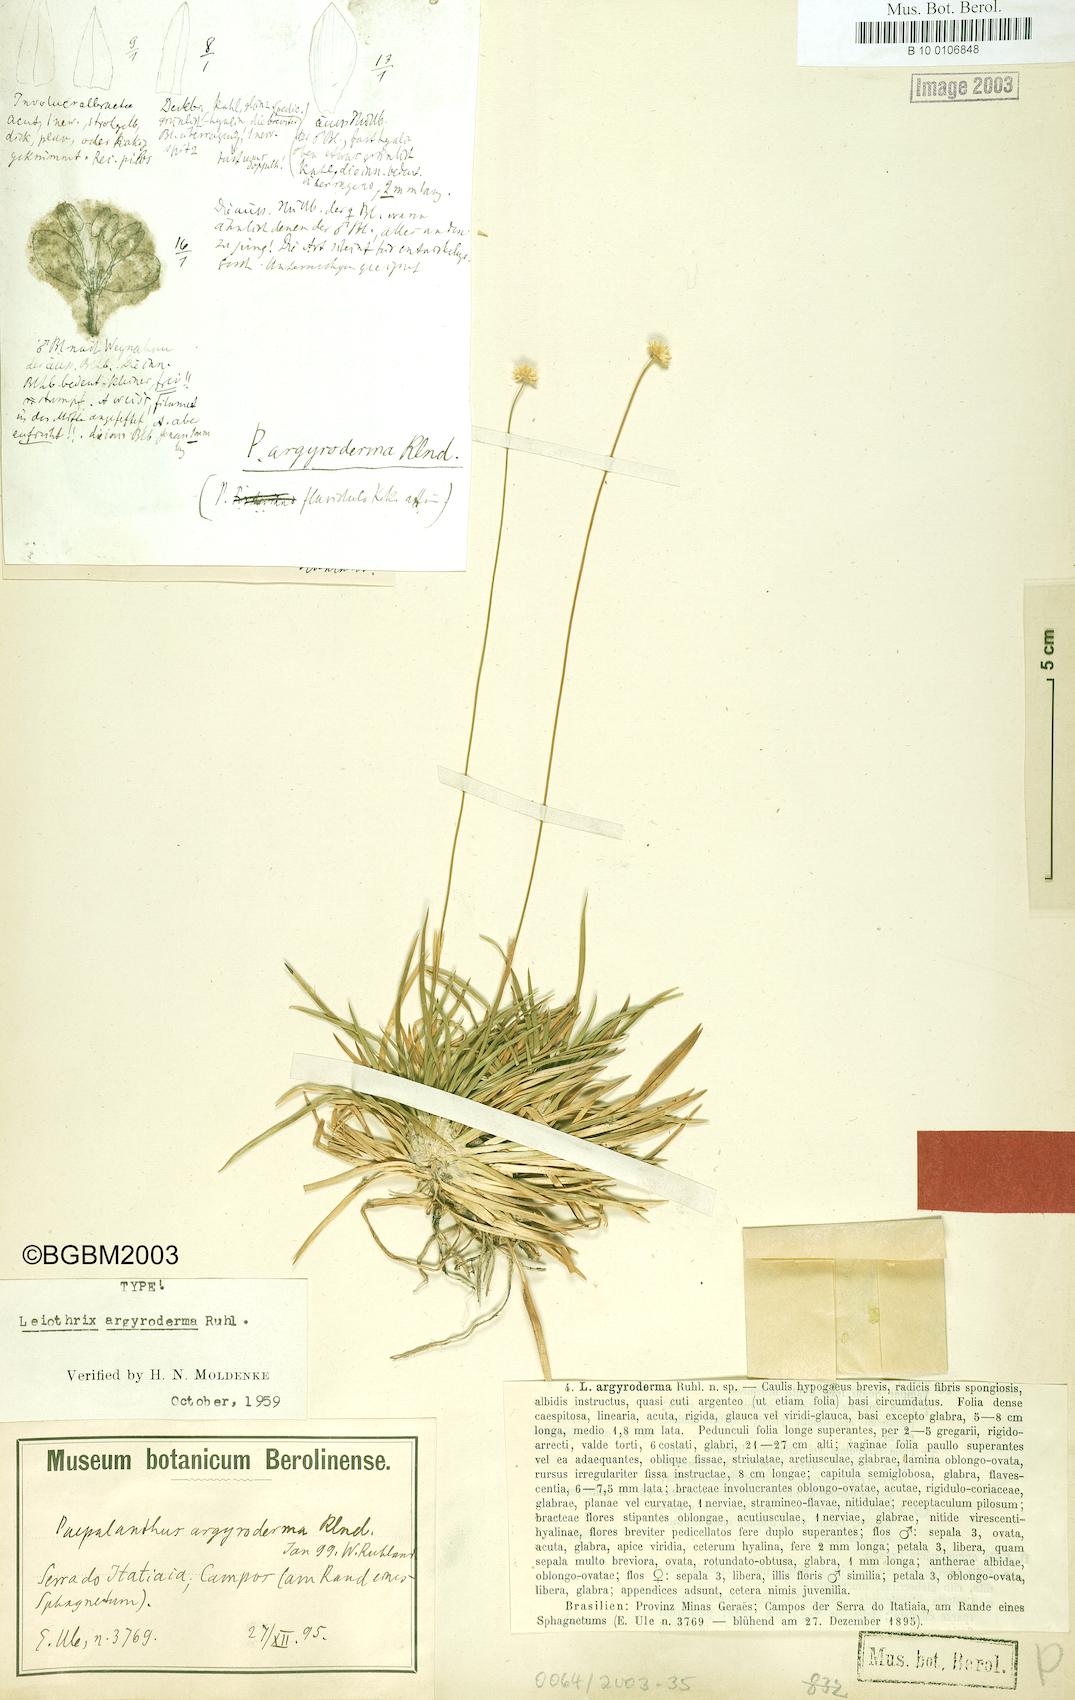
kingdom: Plantae
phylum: Tracheophyta
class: Liliopsida
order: Poales
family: Eriocaulaceae
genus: Leiothrix
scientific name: Leiothrix argyroderma
